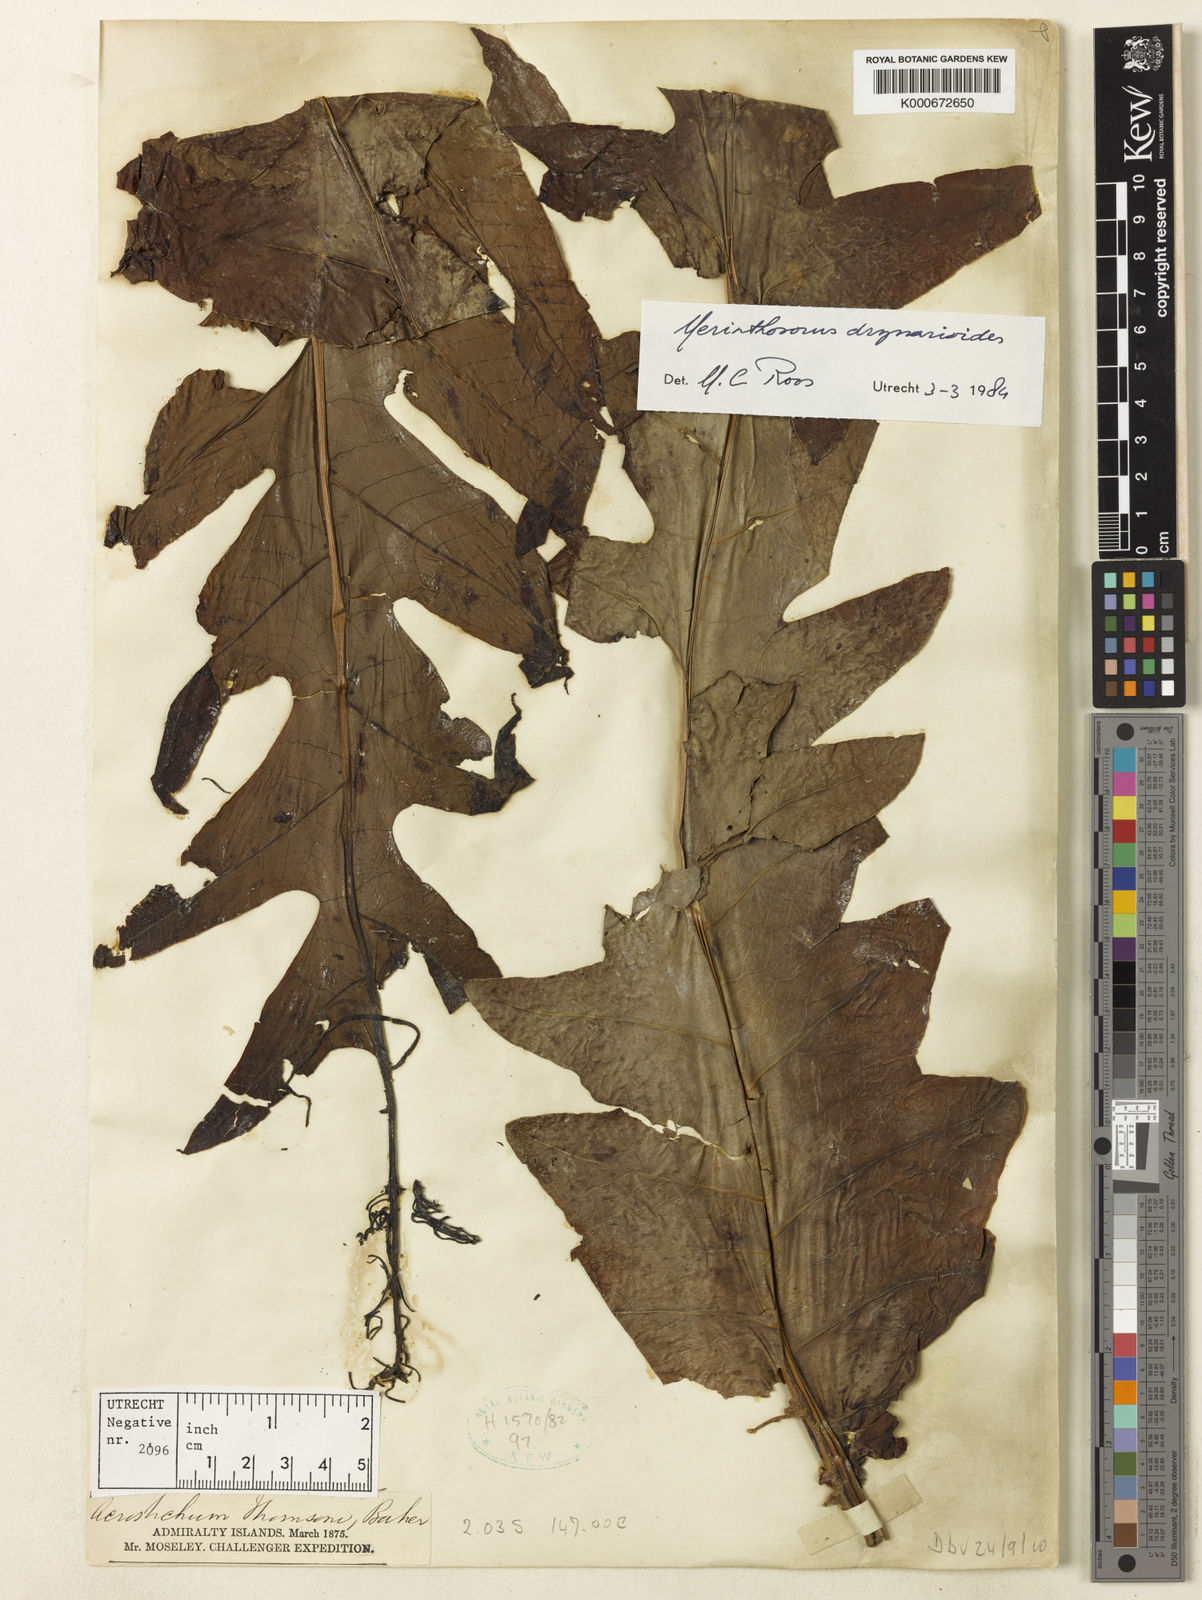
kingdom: Plantae
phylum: Tracheophyta
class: Polypodiopsida
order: Polypodiales
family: Polypodiaceae
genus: Drynaria
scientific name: Drynaria drynarioides
